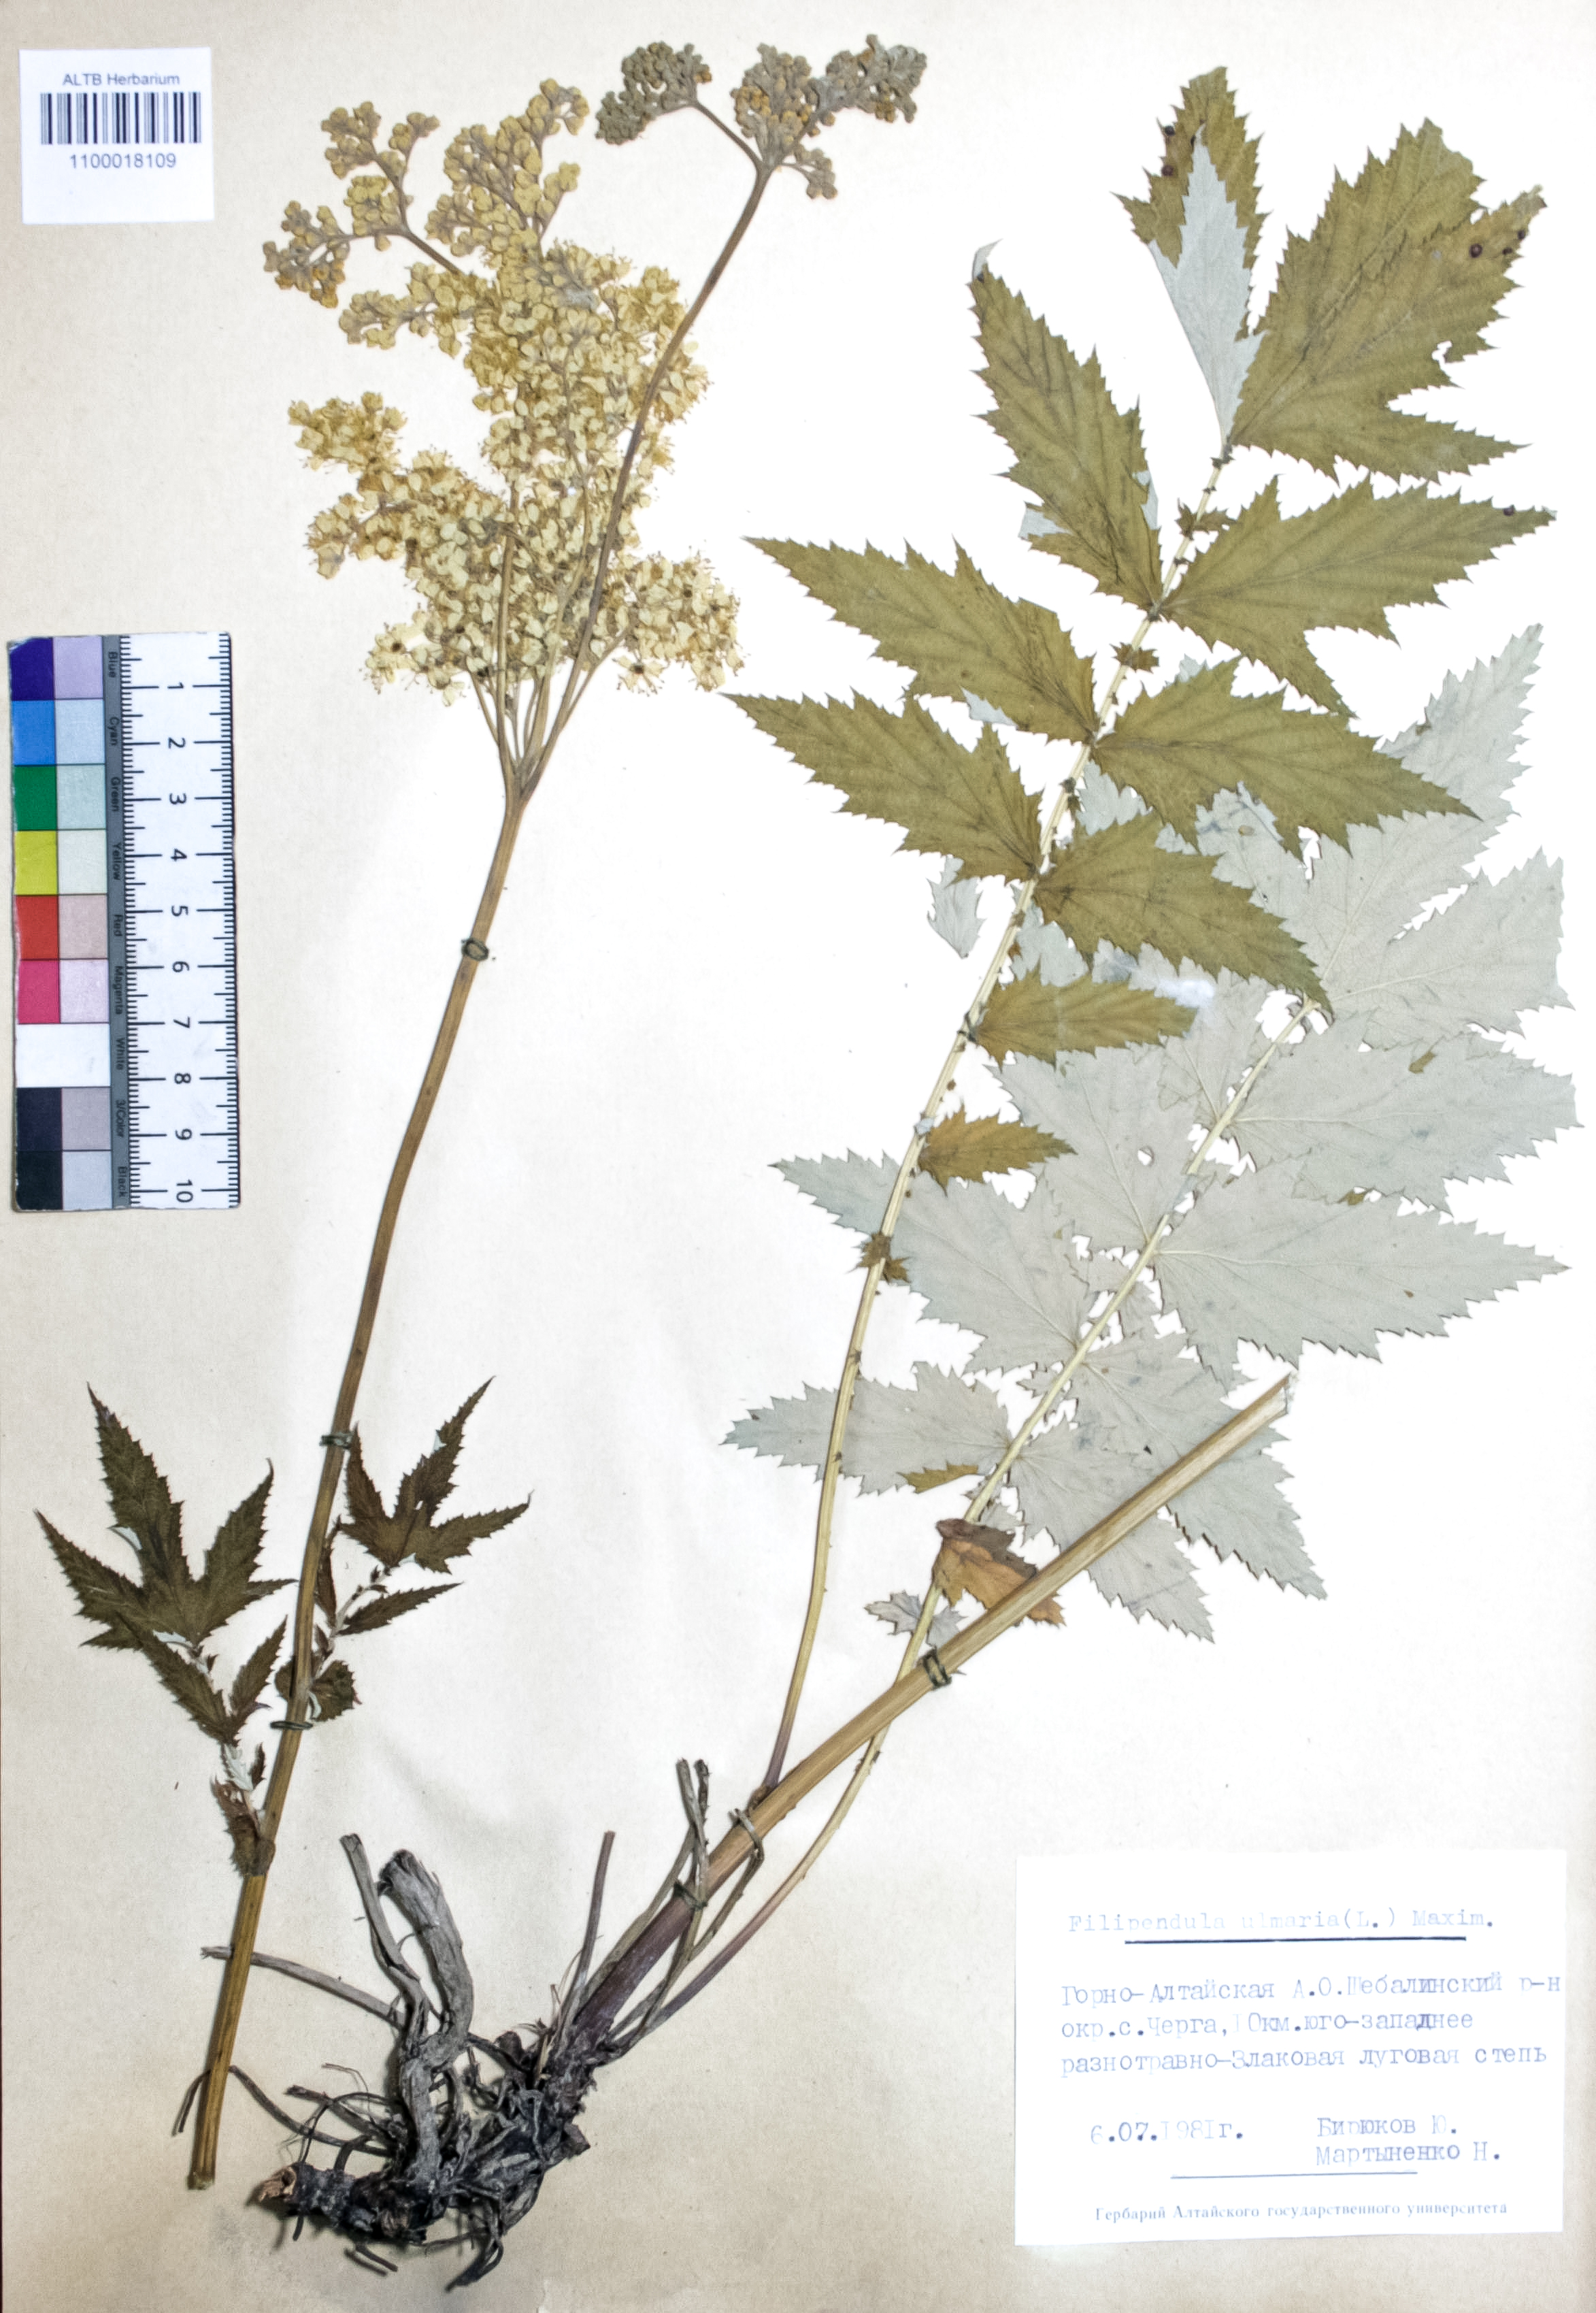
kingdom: Plantae
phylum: Tracheophyta
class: Magnoliopsida
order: Rosales
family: Rosaceae
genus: Filipendula
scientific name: Filipendula ulmaria
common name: Meadowsweet
